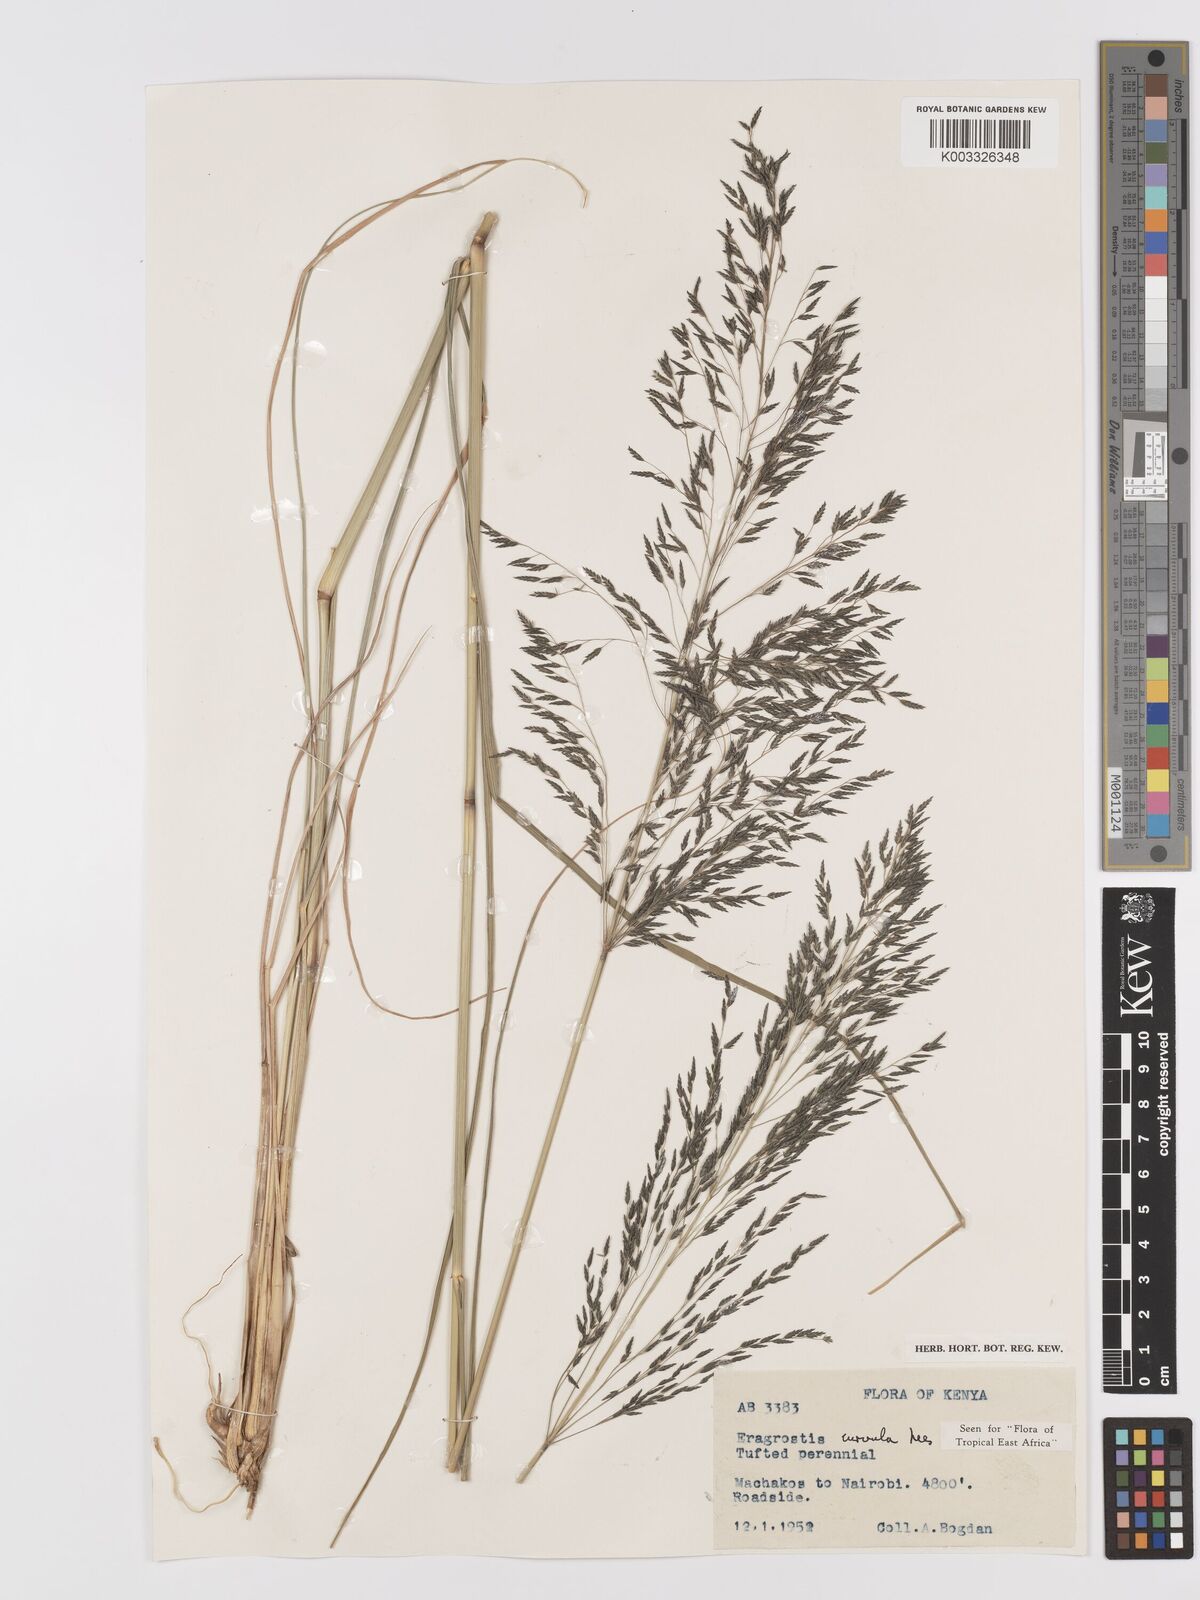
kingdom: Plantae
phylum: Tracheophyta
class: Liliopsida
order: Poales
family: Poaceae
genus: Eragrostis
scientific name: Eragrostis curvula
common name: African love-grass
